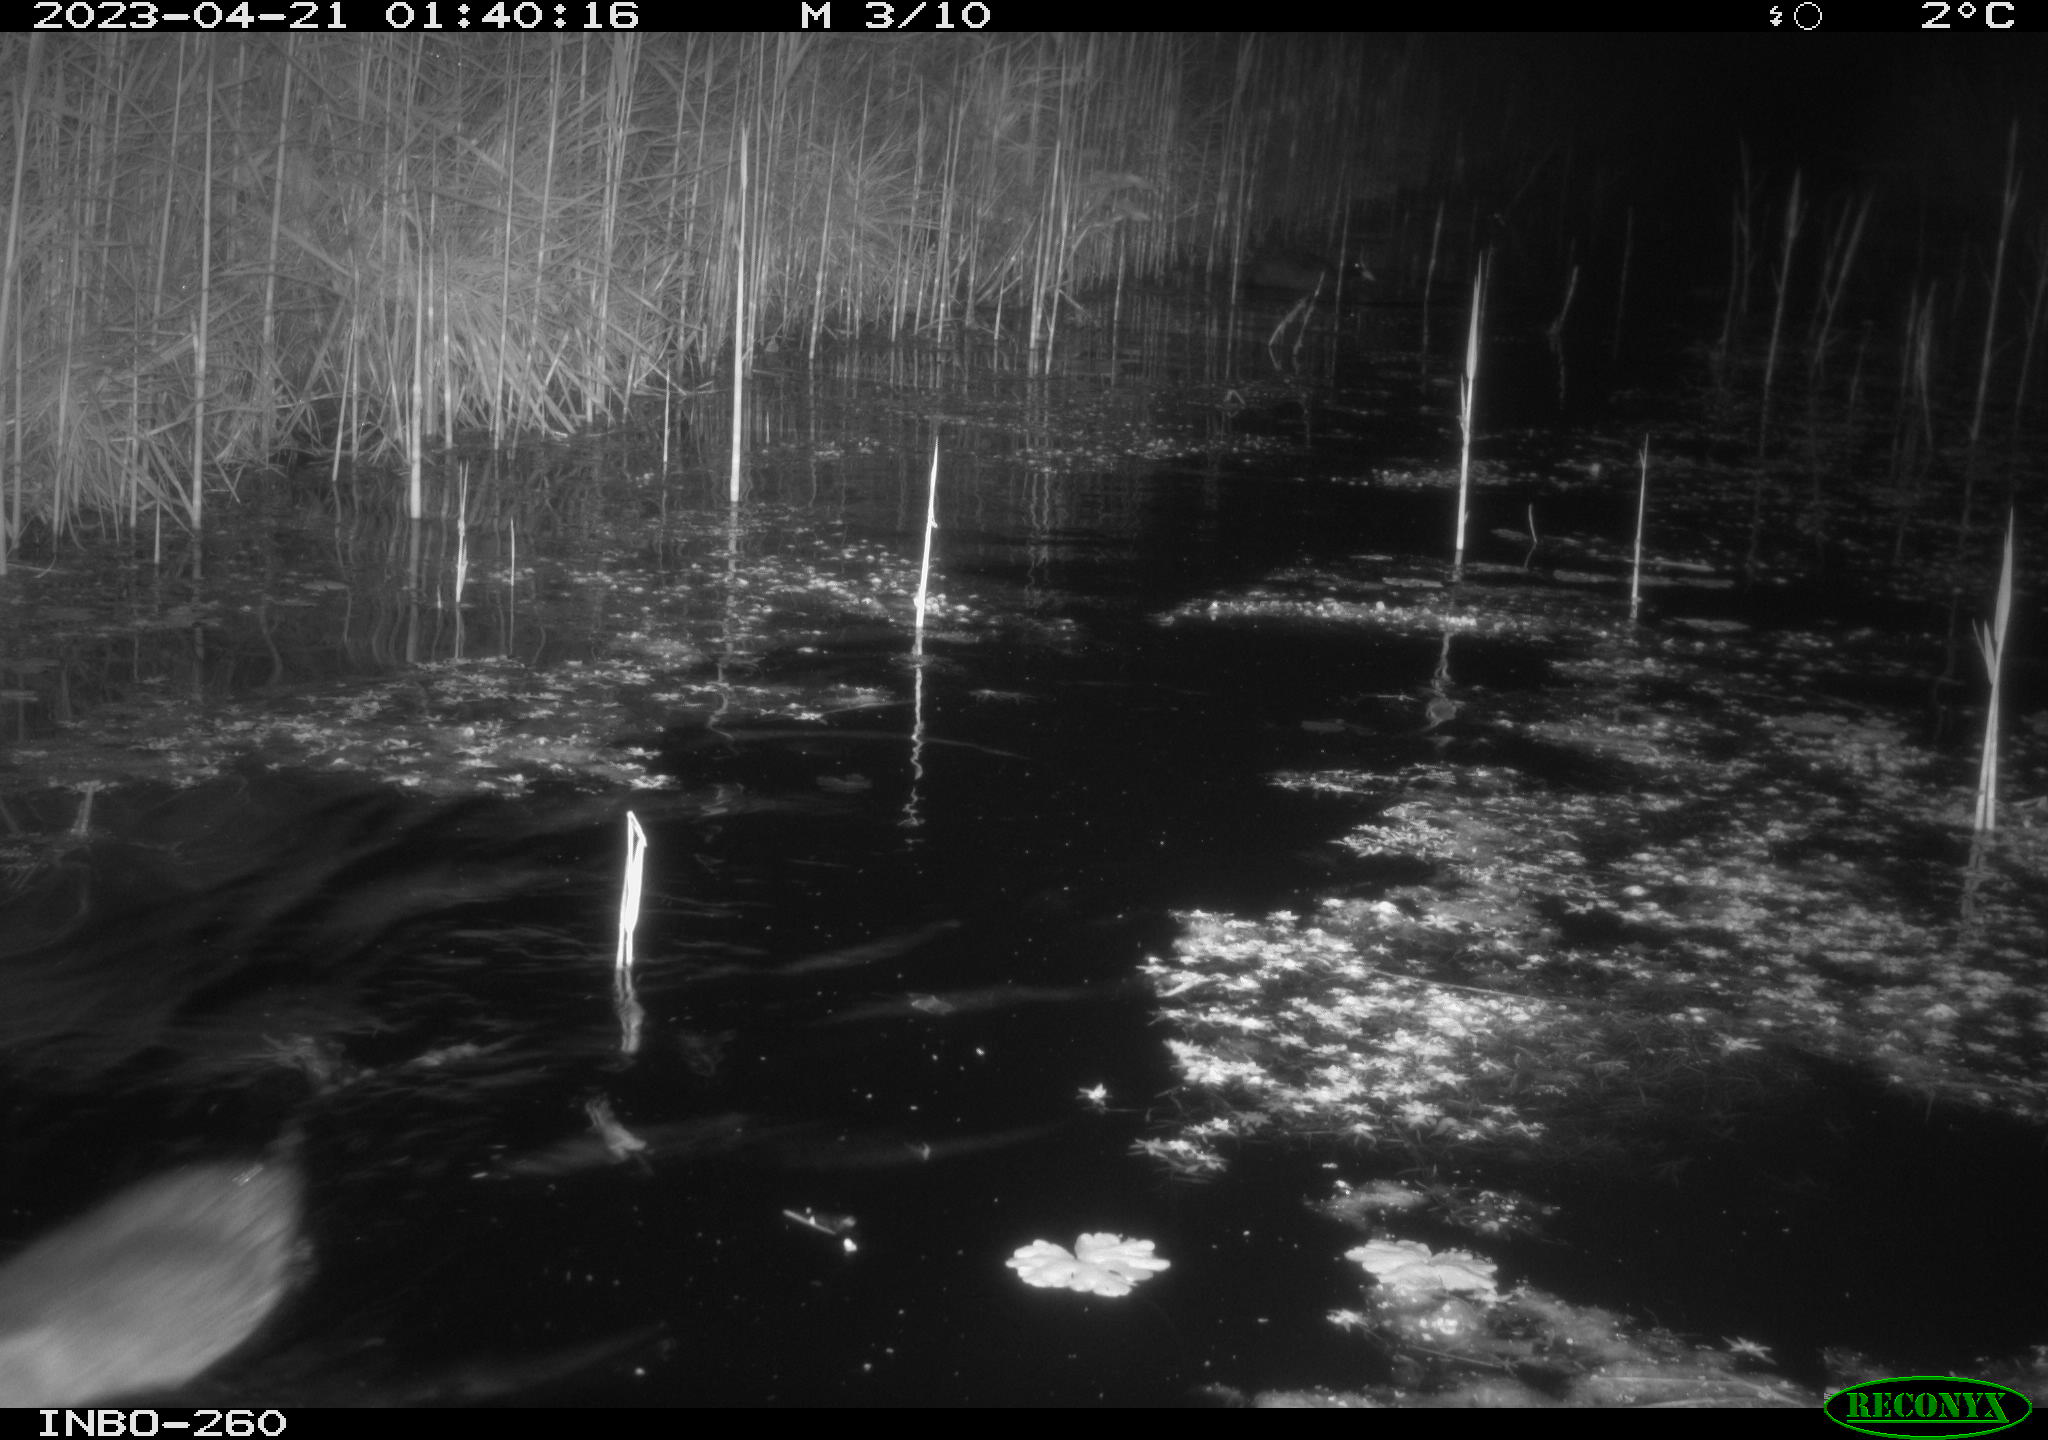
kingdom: Animalia
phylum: Chordata
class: Aves
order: Gruiformes
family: Rallidae
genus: Gallinula
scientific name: Gallinula chloropus
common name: Common moorhen
